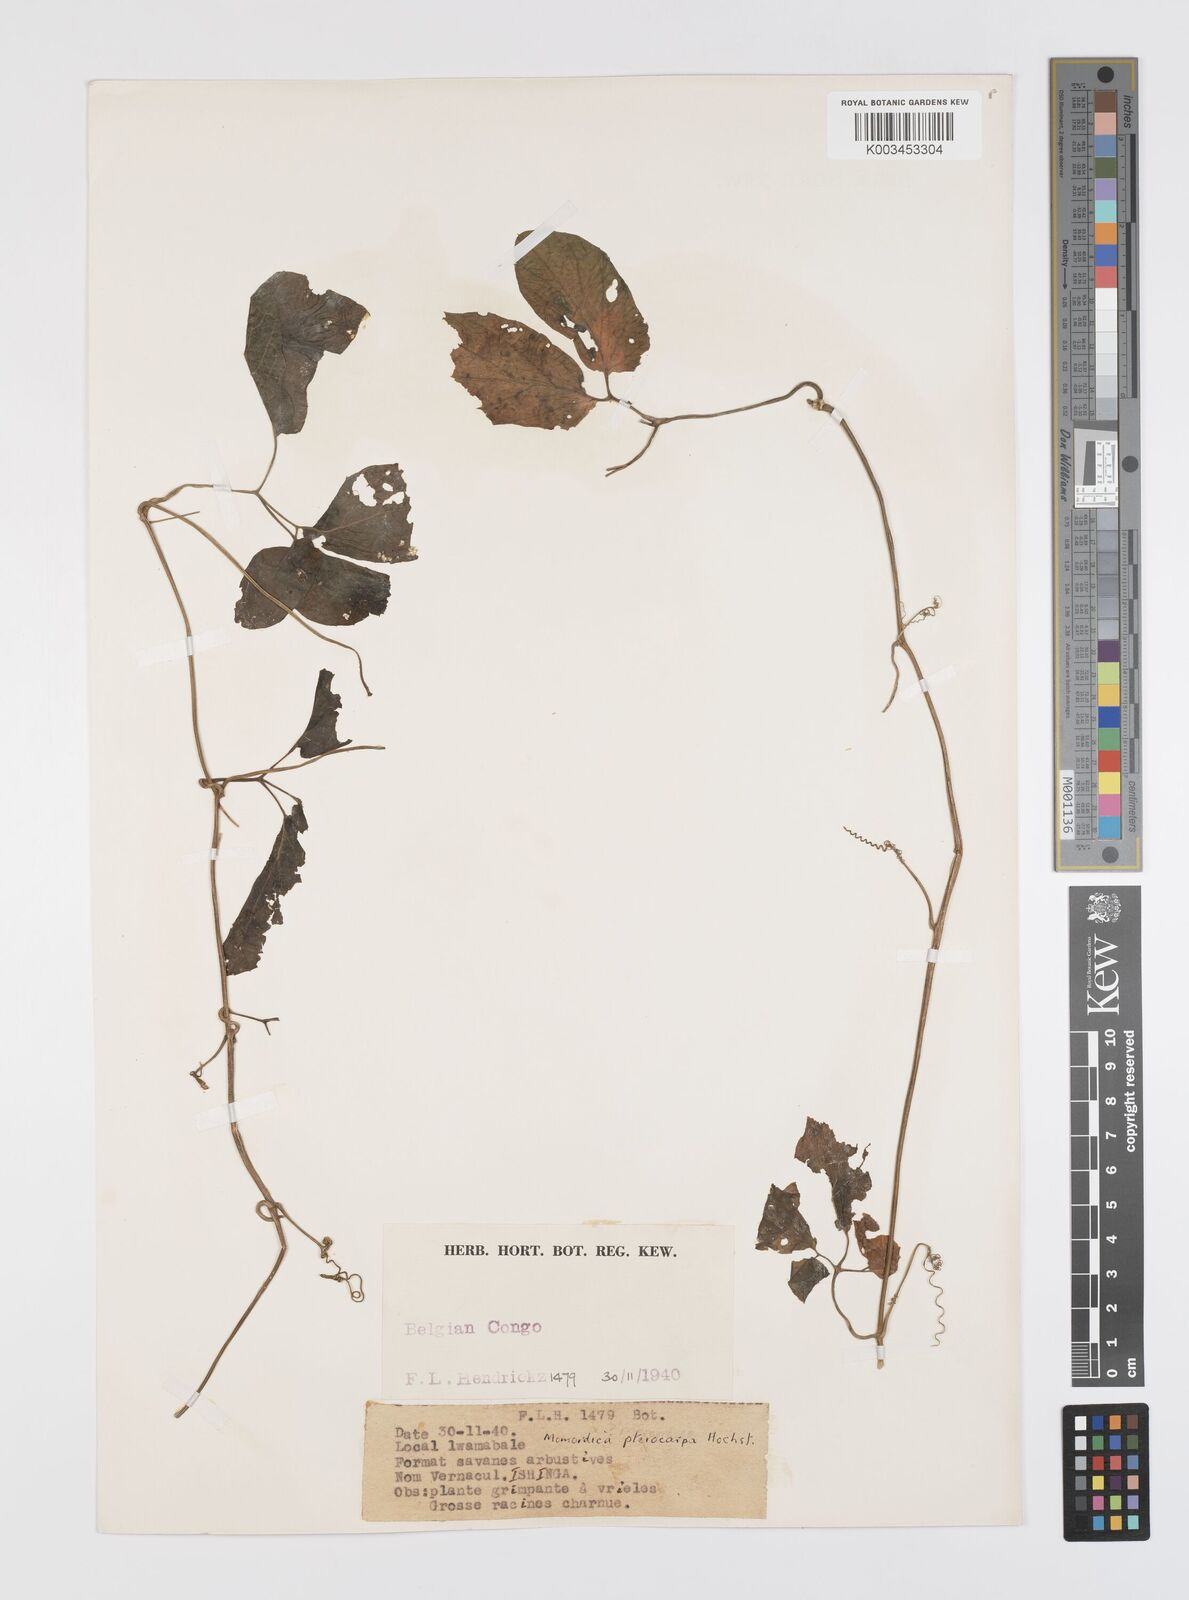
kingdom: Plantae
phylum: Tracheophyta
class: Magnoliopsida
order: Cucurbitales
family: Cucurbitaceae
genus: Momordica
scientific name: Momordica pterocarpa
